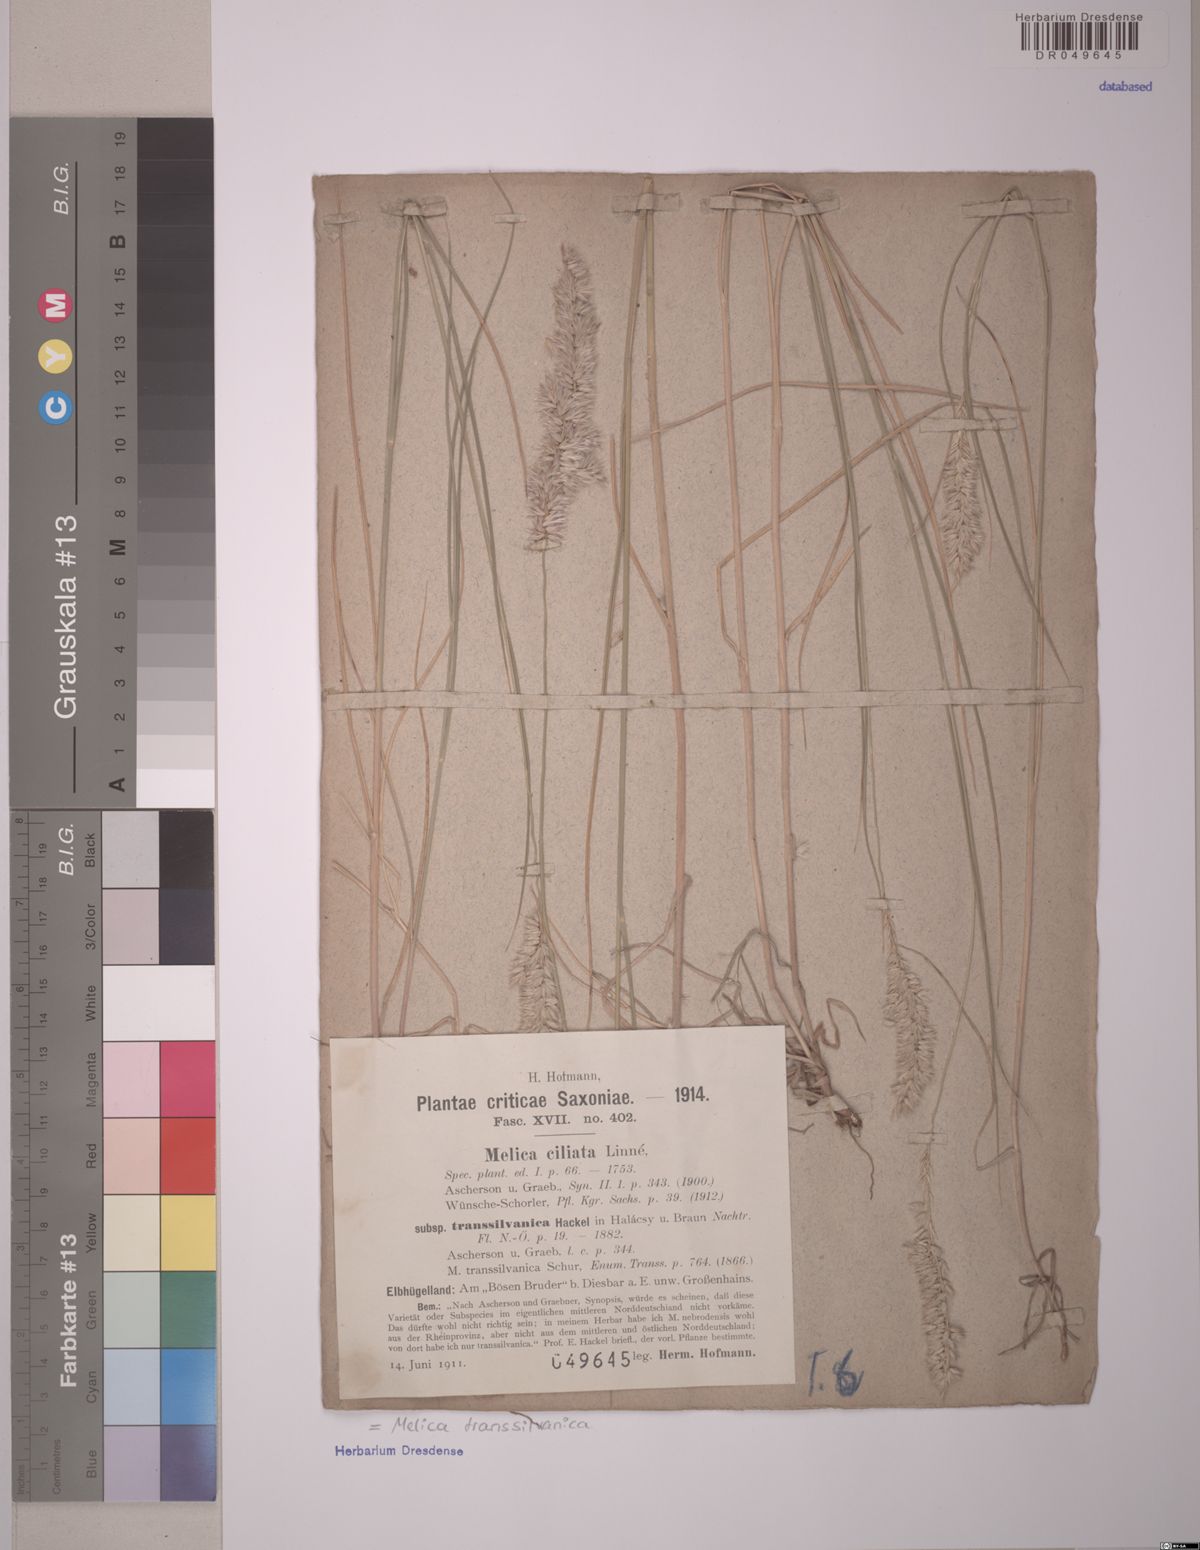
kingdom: Plantae
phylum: Tracheophyta
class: Liliopsida
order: Poales
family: Poaceae
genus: Melica
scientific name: Melica transsilvanica
